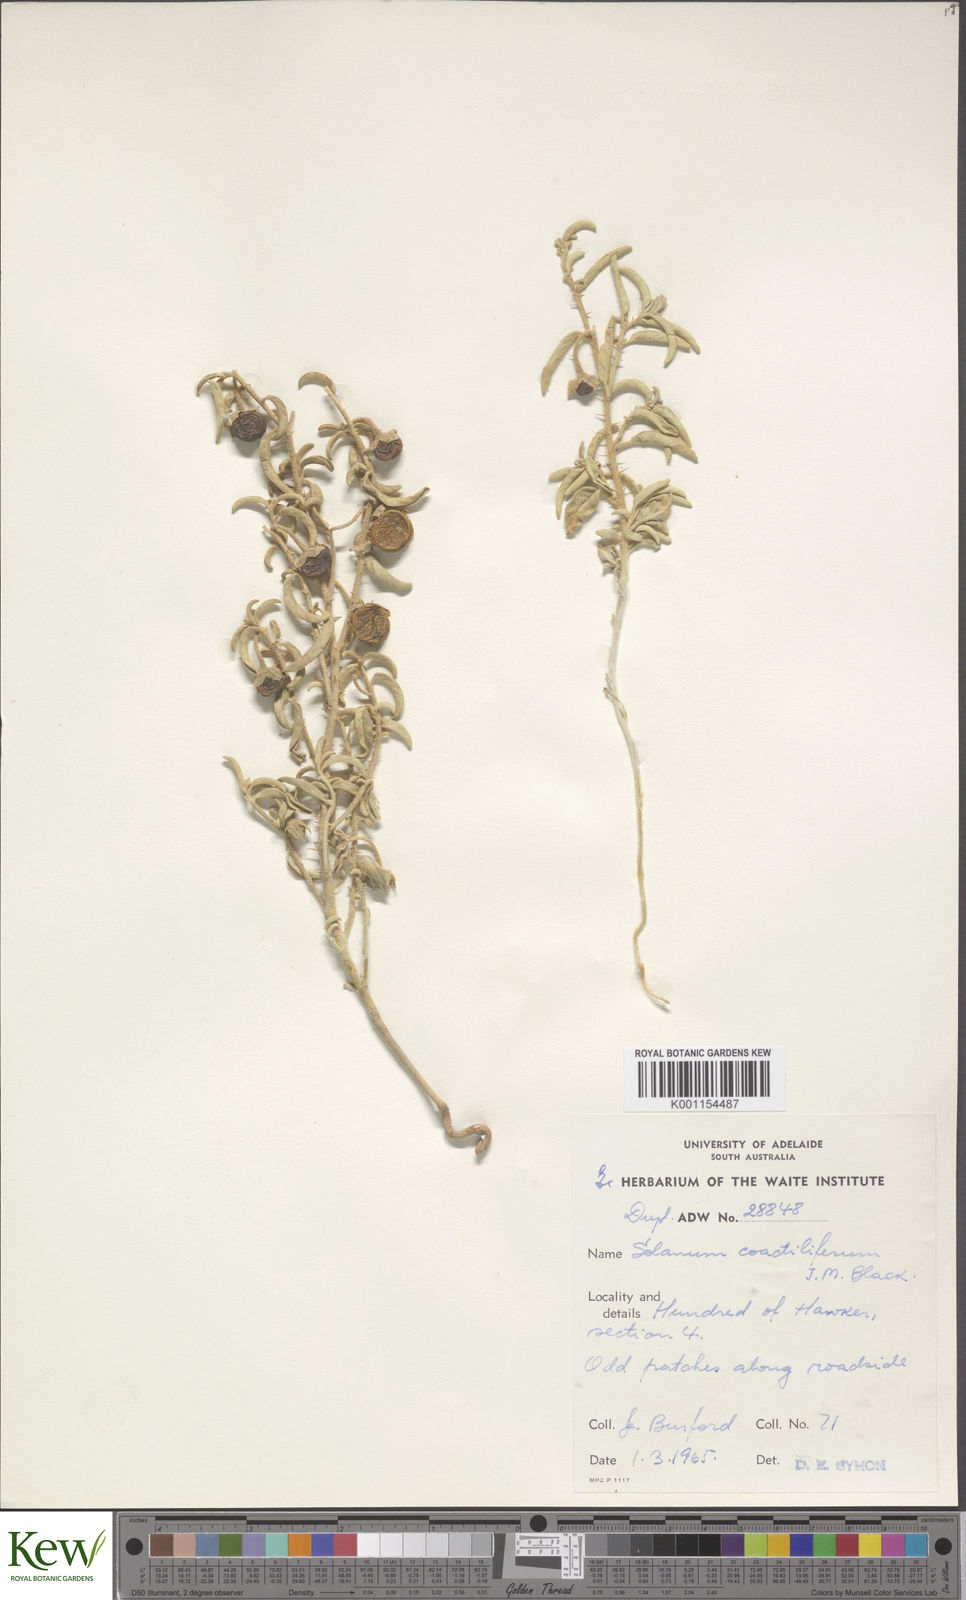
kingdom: Plantae
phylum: Tracheophyta
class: Magnoliopsida
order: Solanales
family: Solanaceae
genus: Solanum
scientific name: Solanum coactiliferum
